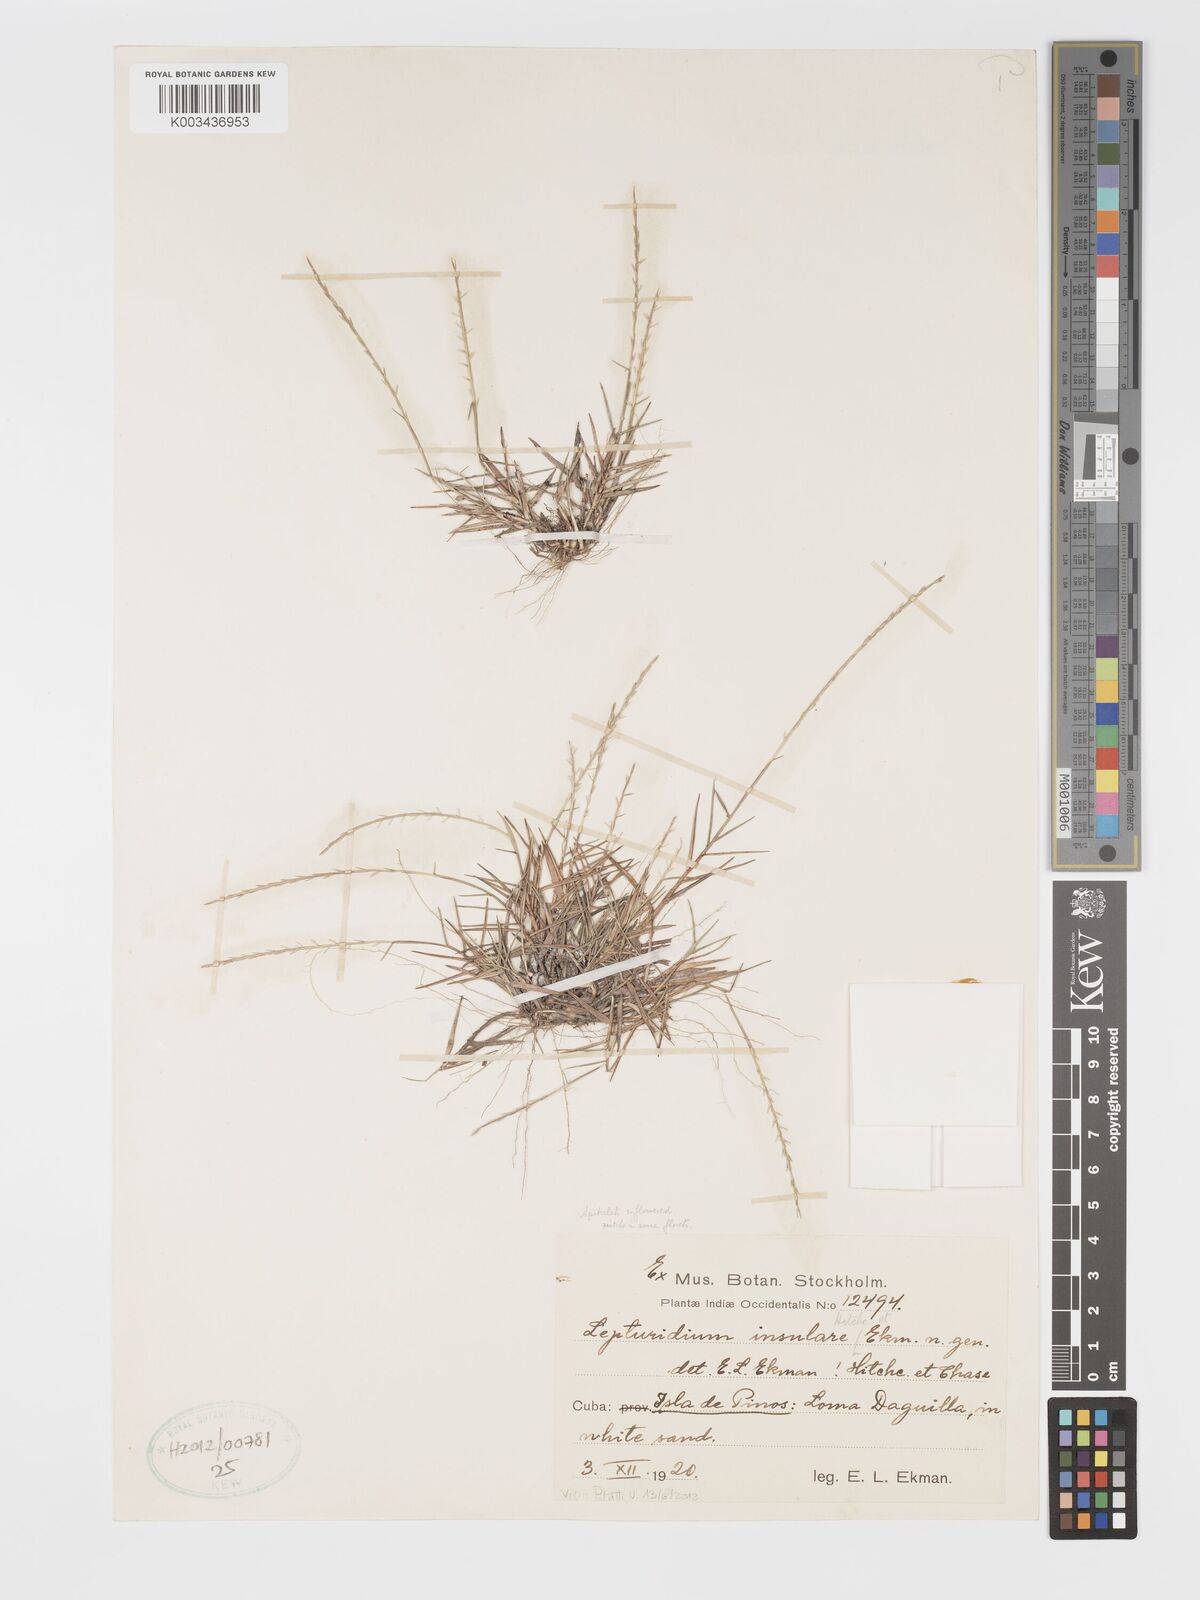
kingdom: Plantae
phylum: Tracheophyta
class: Liliopsida
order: Poales
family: Poaceae
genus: Lepturidium
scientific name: Lepturidium insulare
